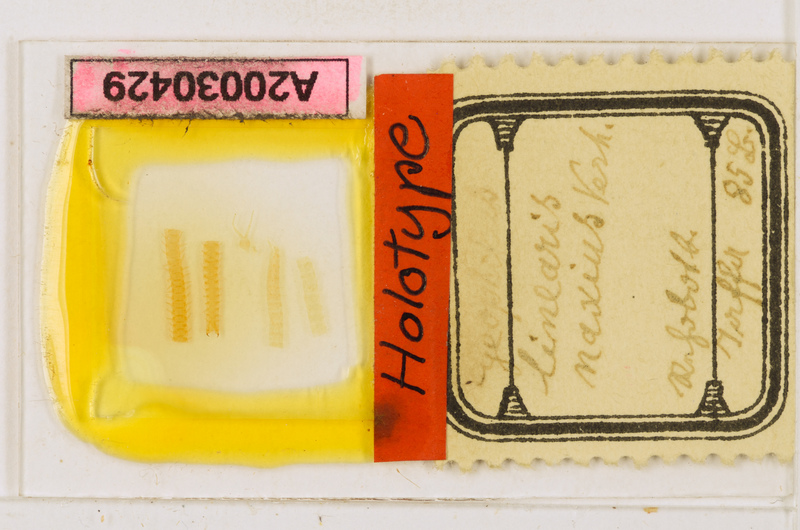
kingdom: Animalia
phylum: Arthropoda
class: Chilopoda
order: Geophilomorpha
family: Geophilidae
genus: Geophilus
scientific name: Geophilus naxius
